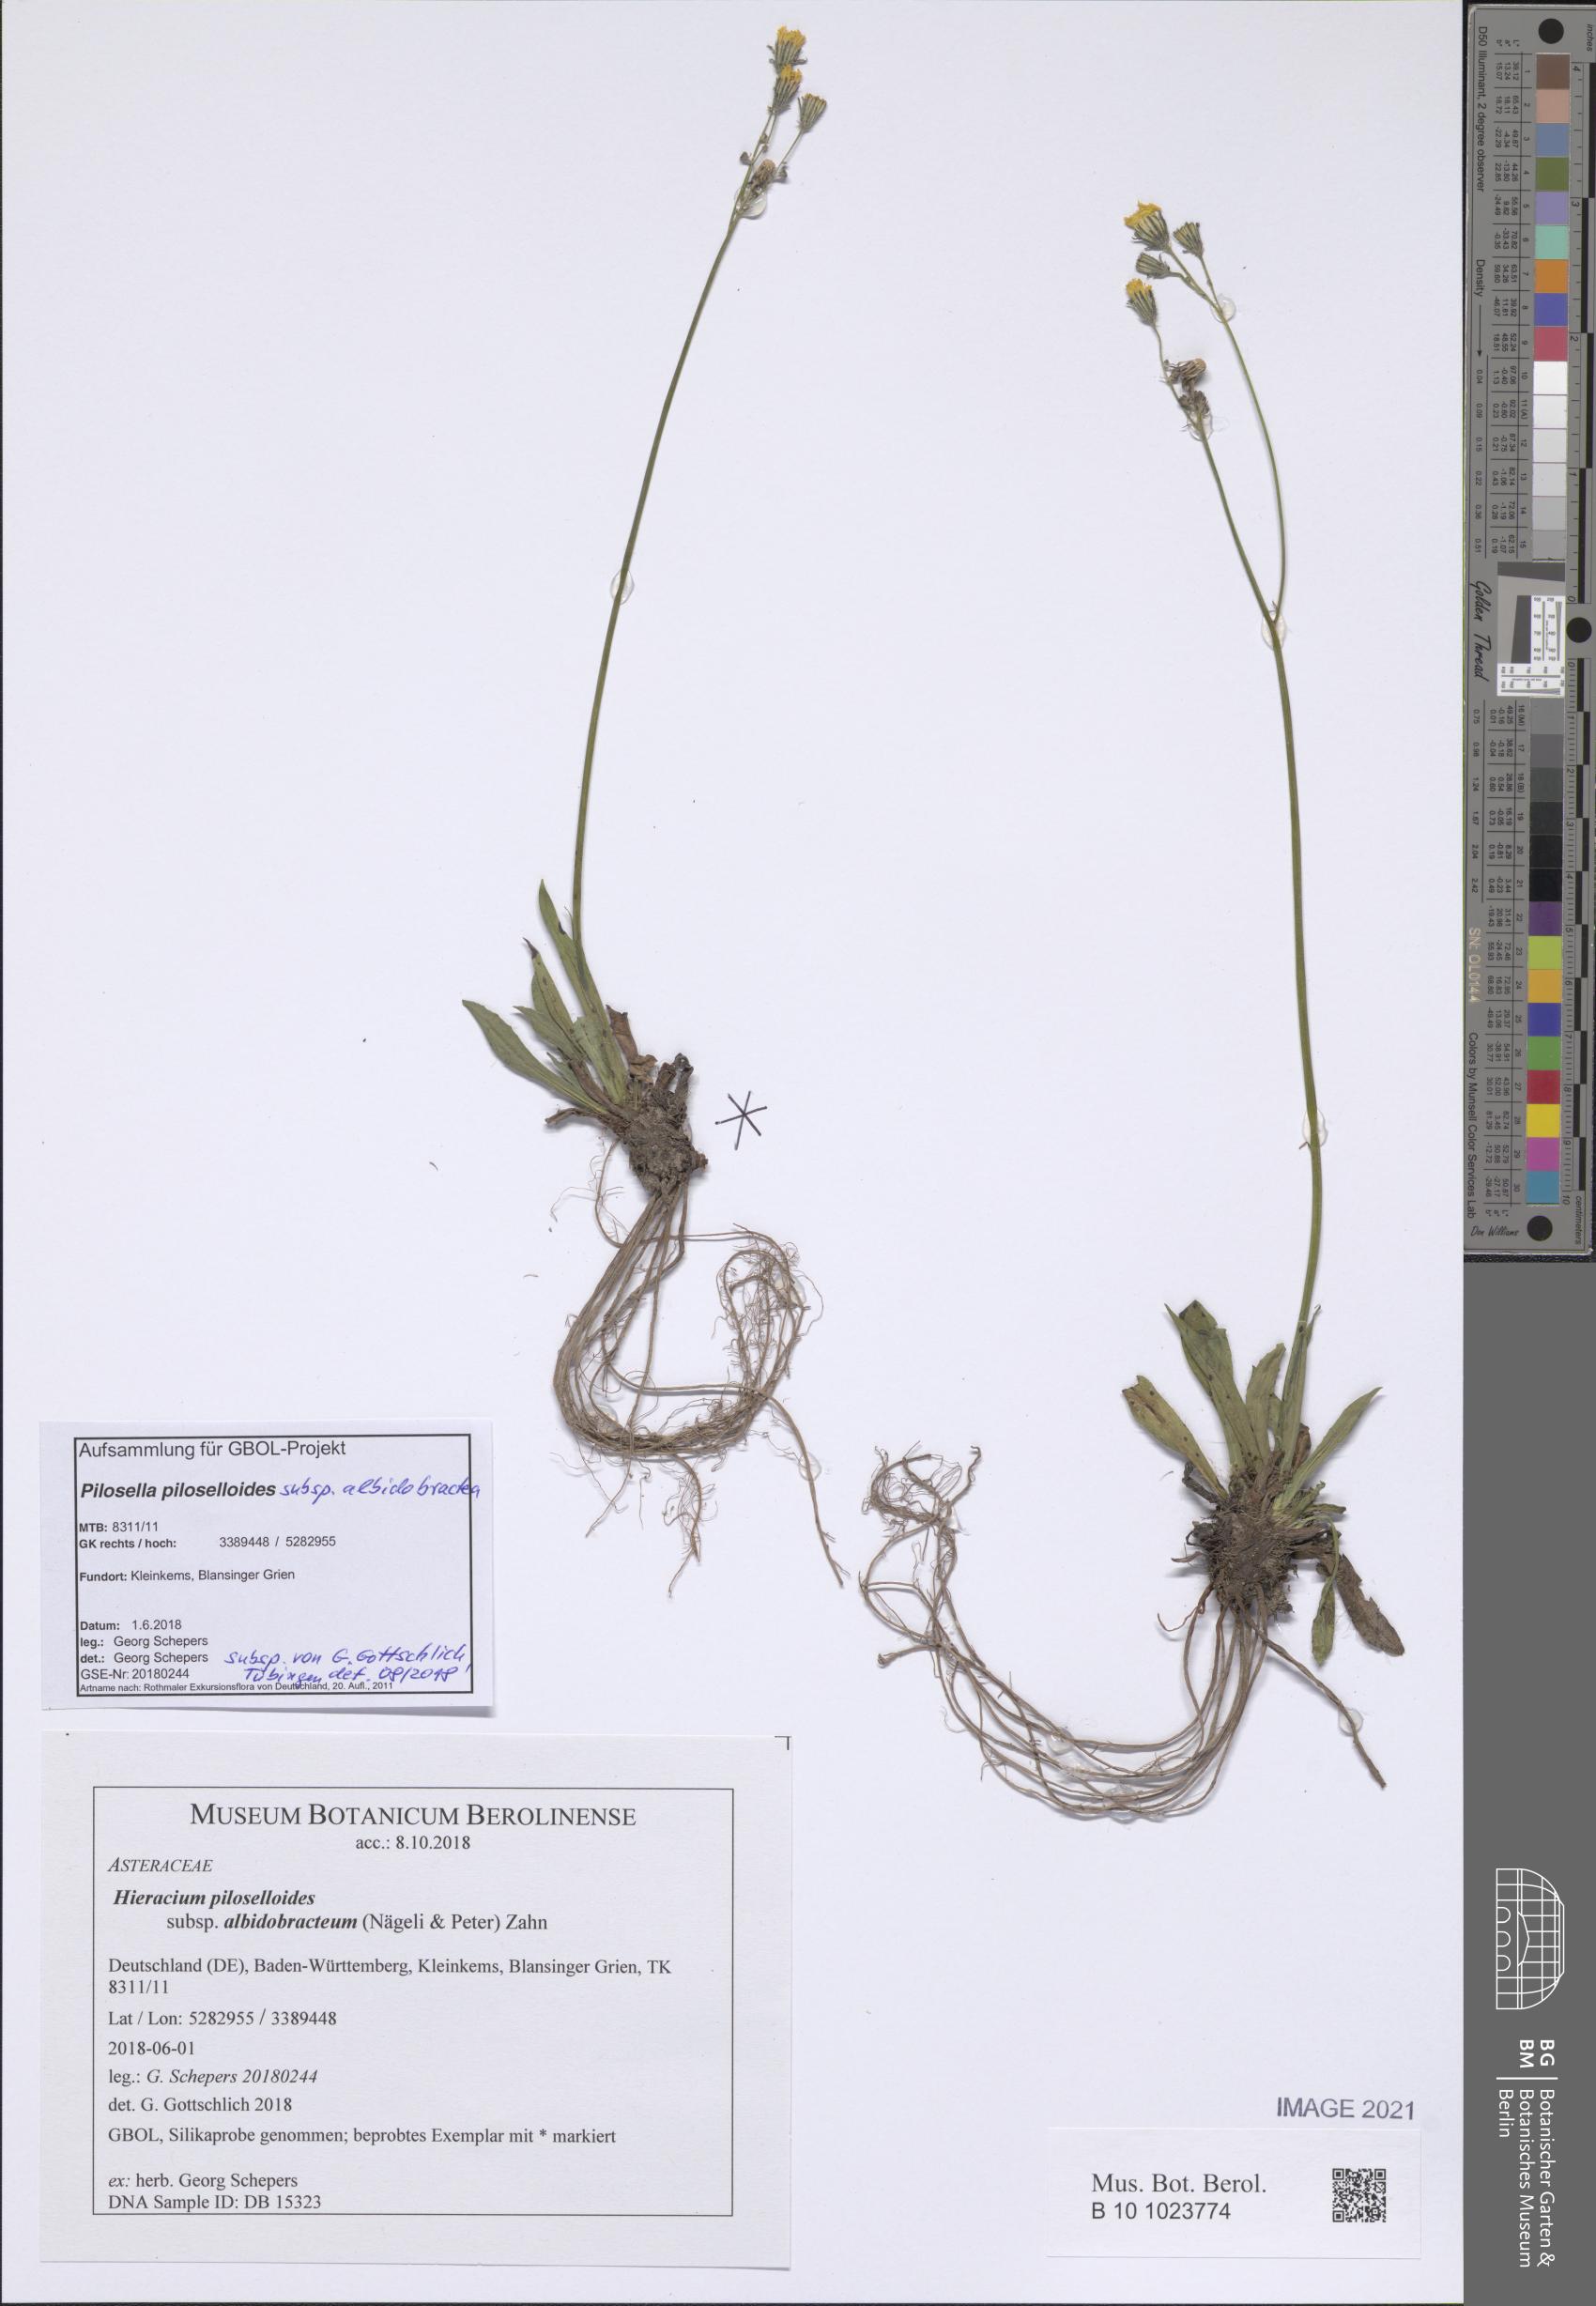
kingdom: Plantae
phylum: Tracheophyta
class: Magnoliopsida
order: Asterales
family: Asteraceae
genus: Pilosella
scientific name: Pilosella piloselloides
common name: Glaucous king-devil
